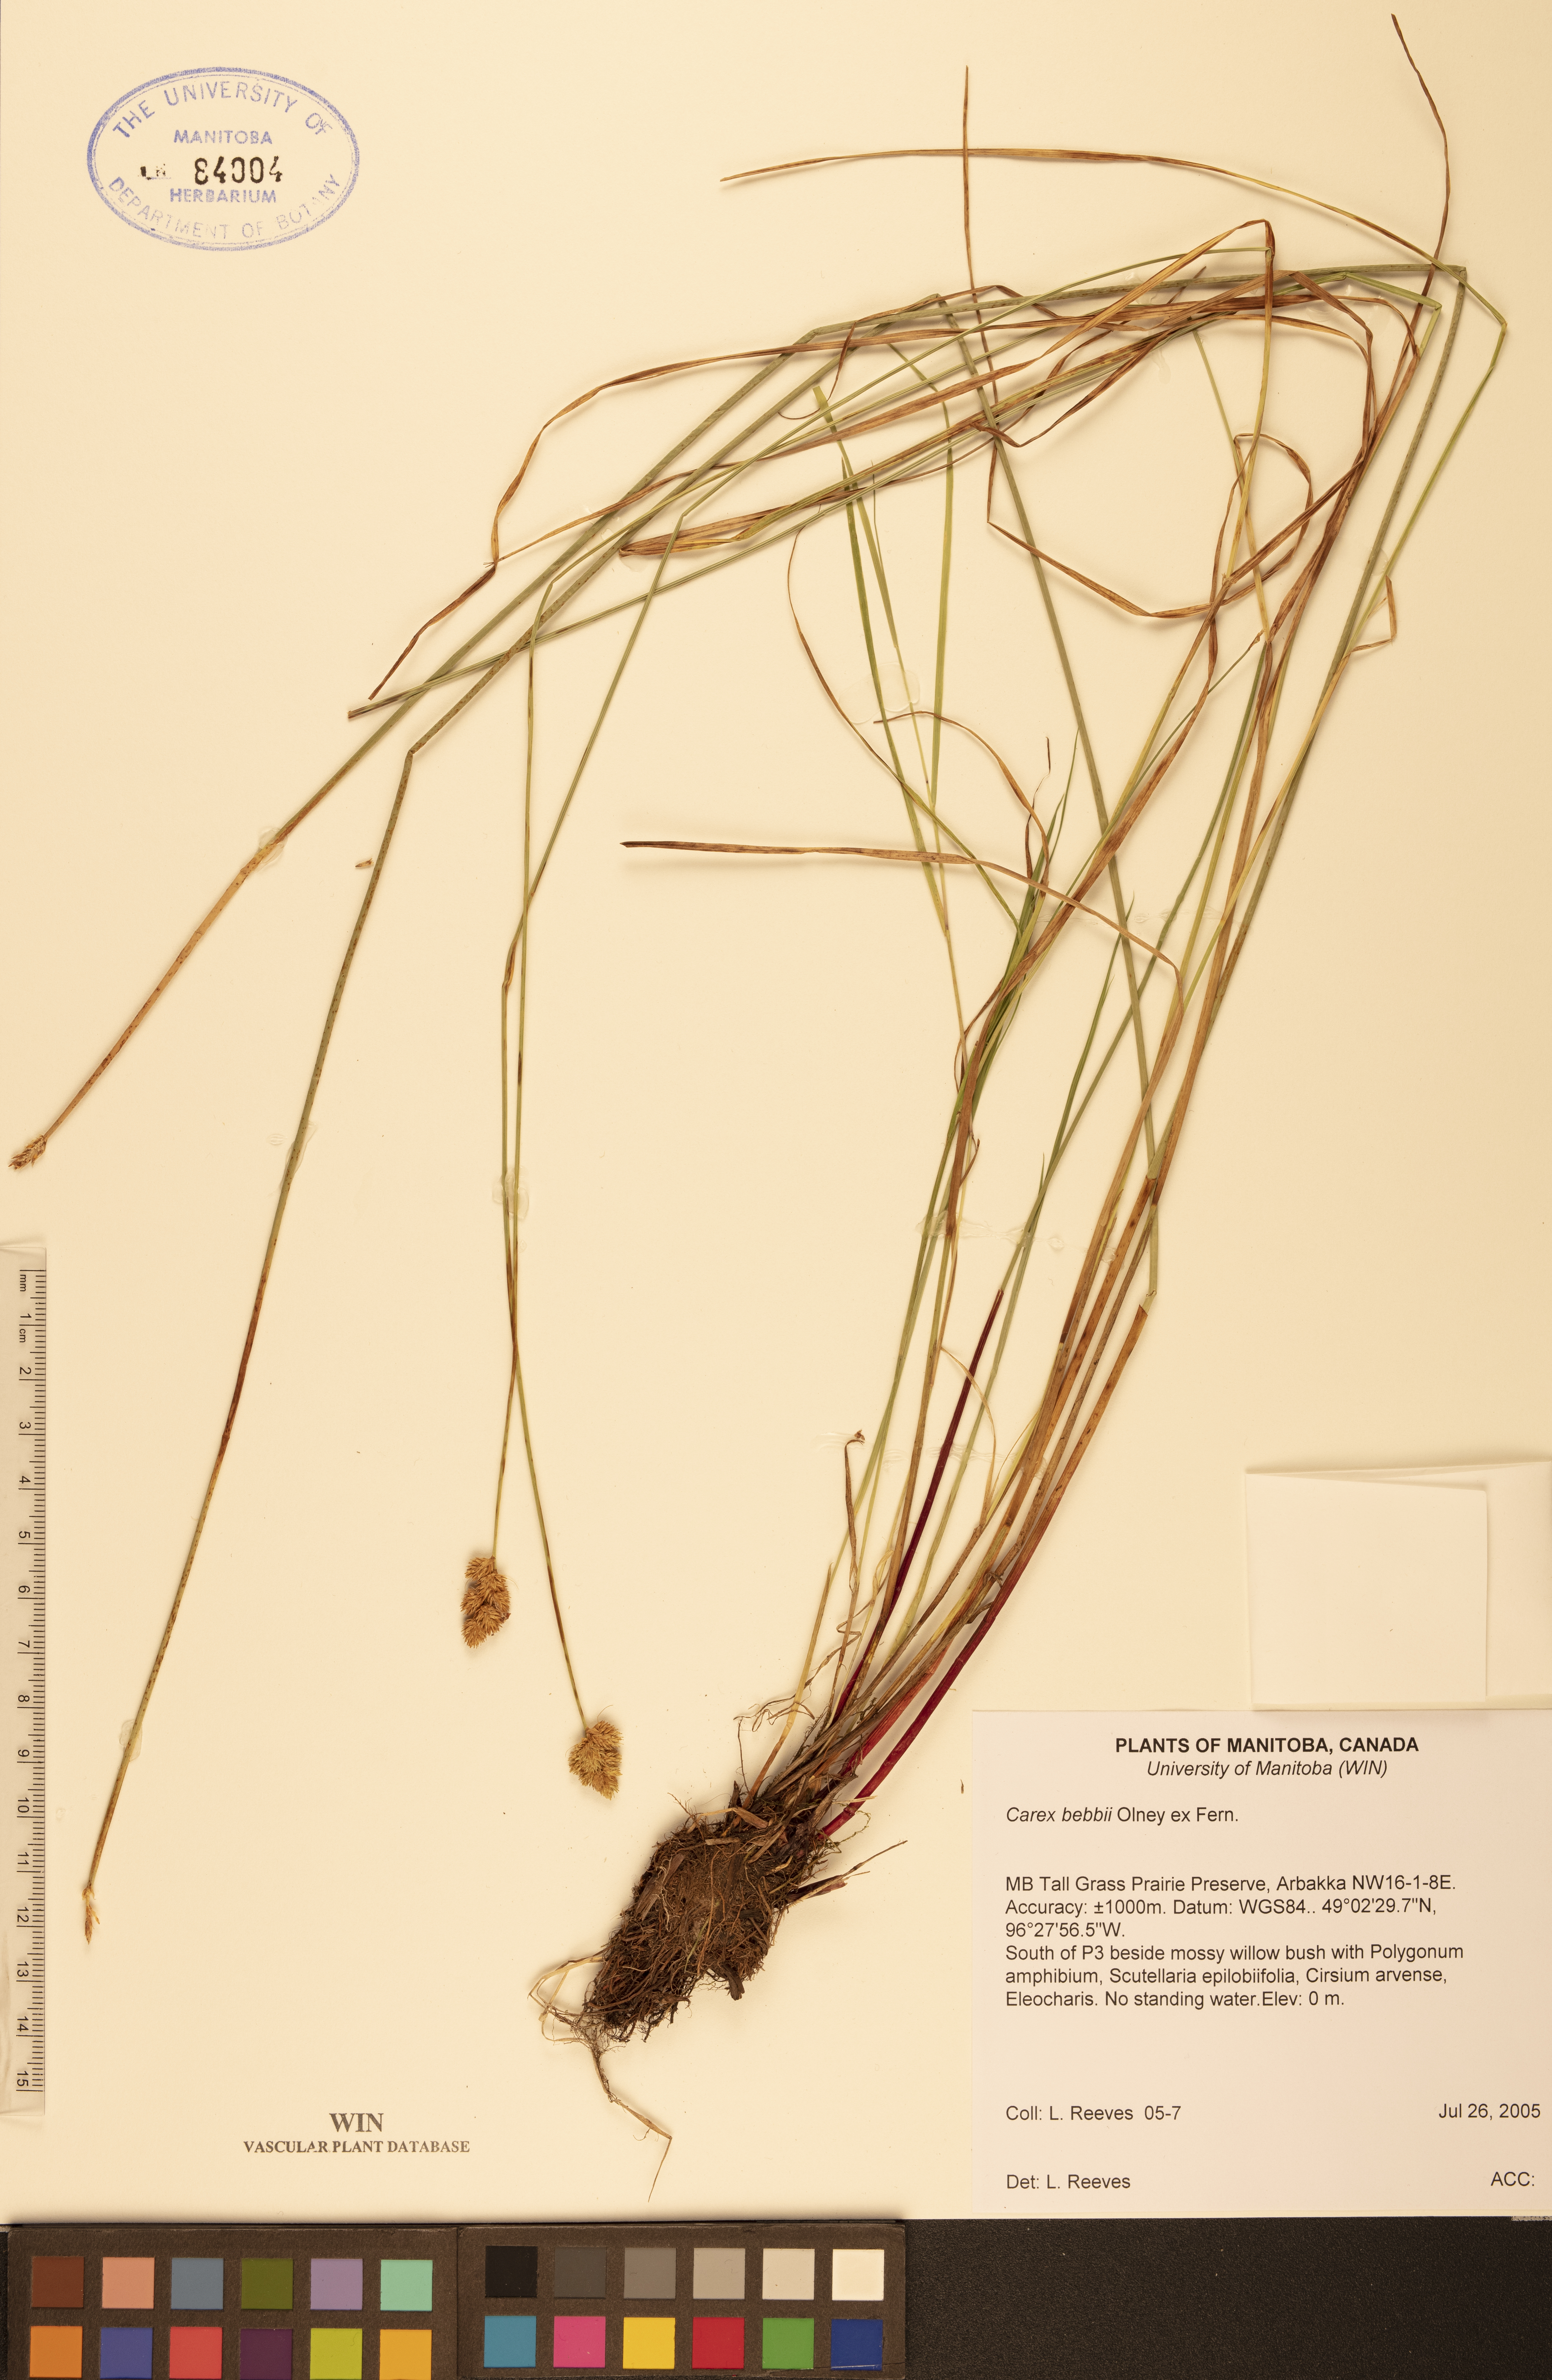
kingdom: Plantae
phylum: Tracheophyta
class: Liliopsida
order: Poales
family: Cyperaceae
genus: Carex
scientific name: Carex bebbii
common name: Bebb's sedge
